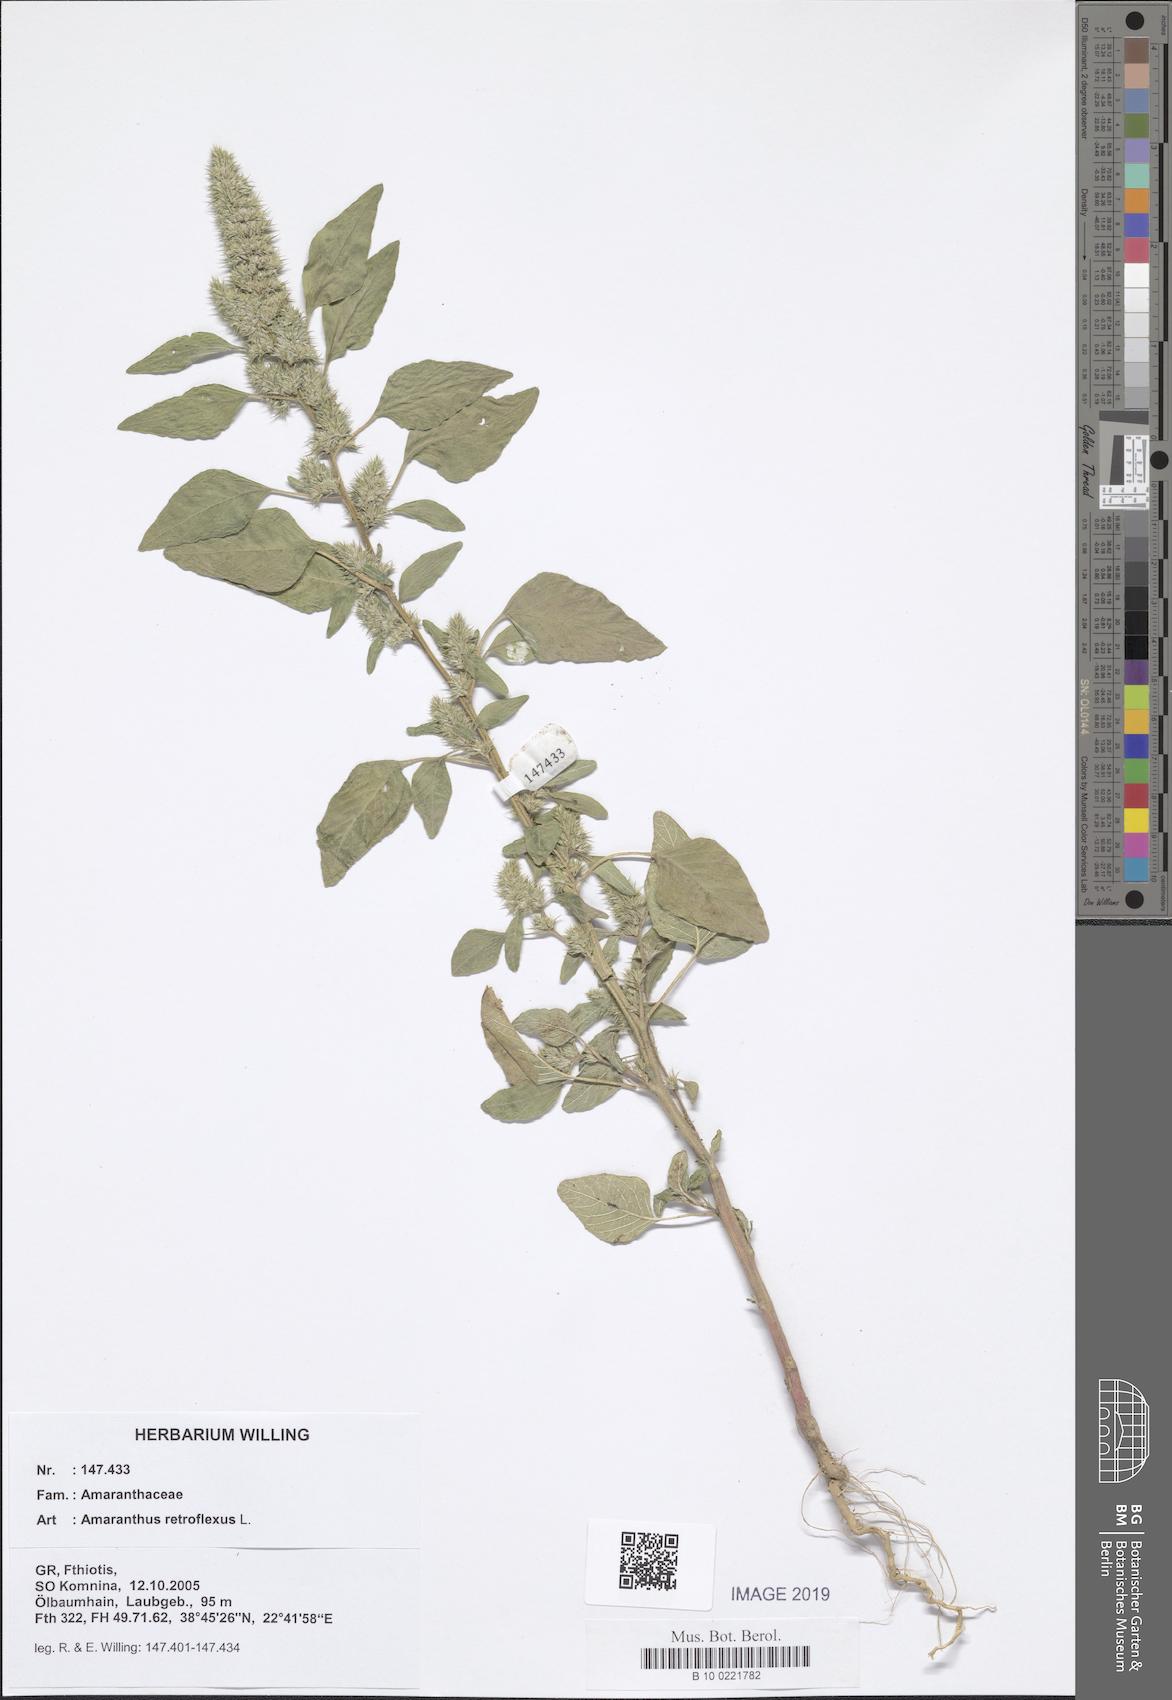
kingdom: Plantae
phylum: Tracheophyta
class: Magnoliopsida
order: Caryophyllales
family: Amaranthaceae
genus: Amaranthus
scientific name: Amaranthus retroflexus
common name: Redroot amaranth
